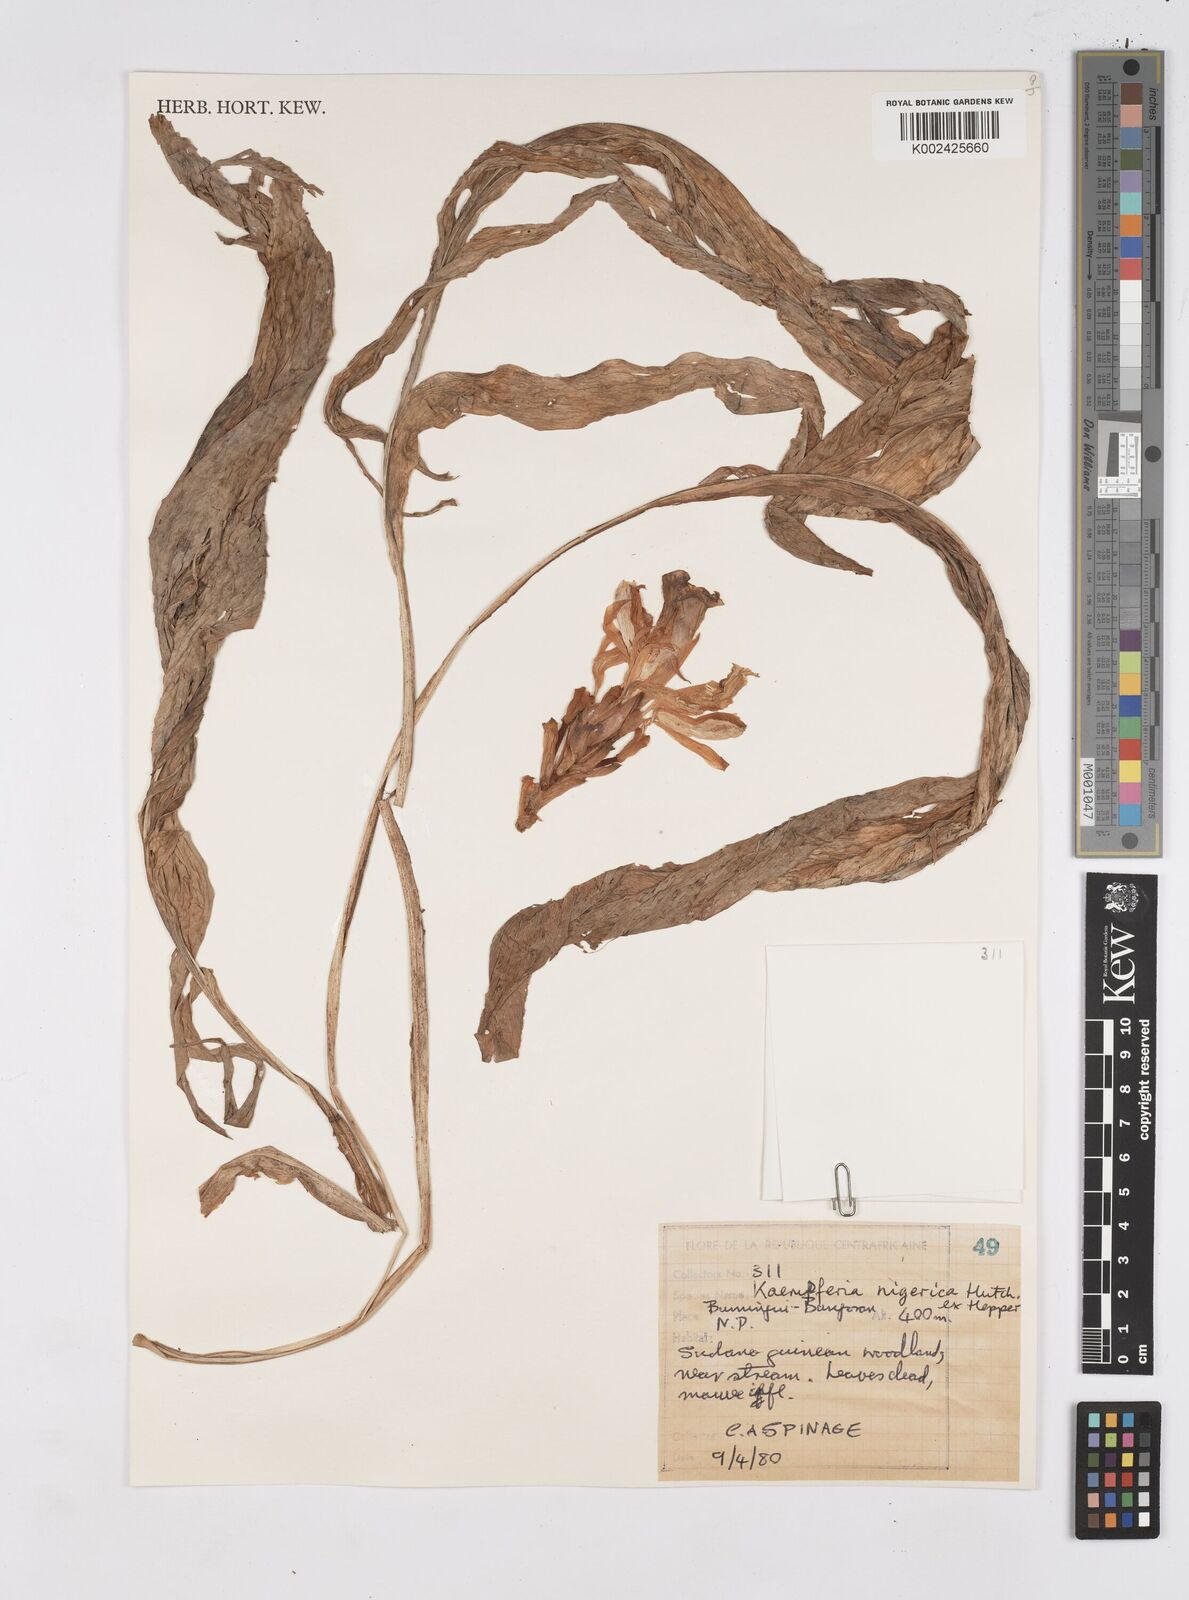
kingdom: Plantae
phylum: Tracheophyta
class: Liliopsida
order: Zingiberales
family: Zingiberaceae
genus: Siphonochilus
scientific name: Siphonochilus nigericus
